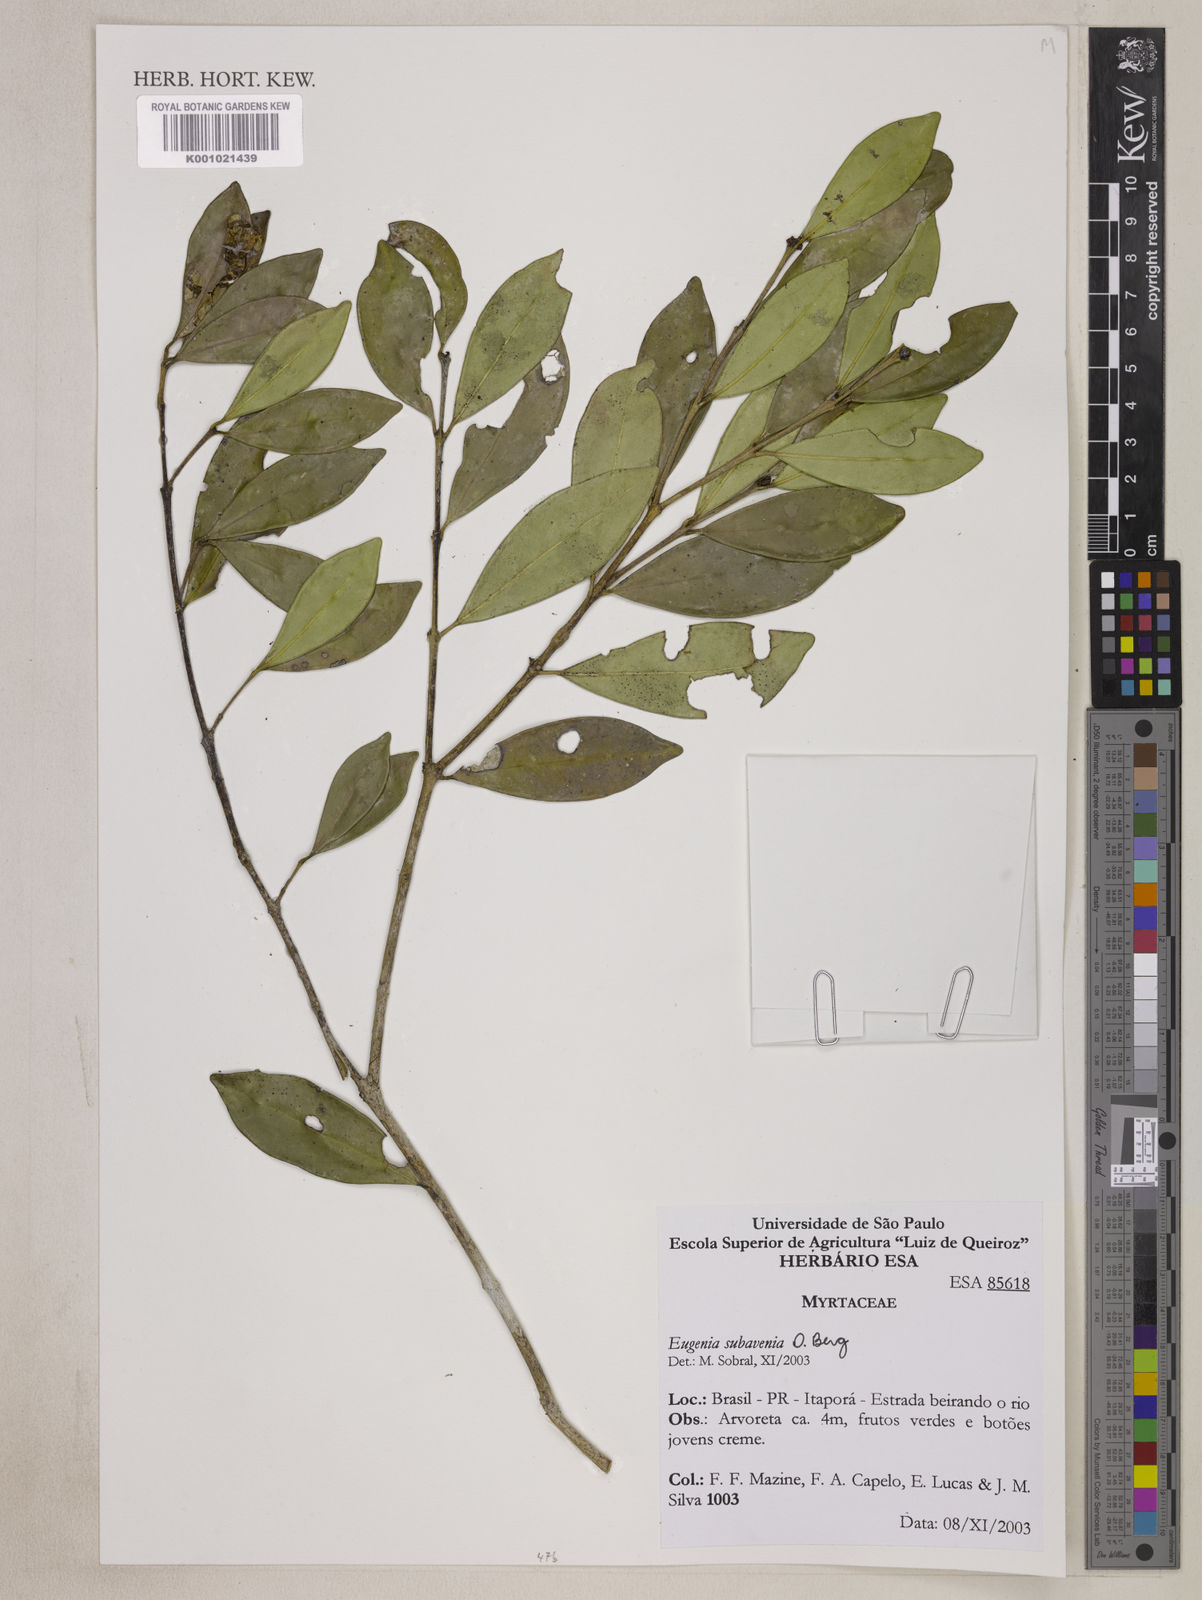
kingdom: Plantae
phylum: Tracheophyta
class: Magnoliopsida
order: Myrtales
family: Myrtaceae
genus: Eugenia
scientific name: Eugenia subavenia
